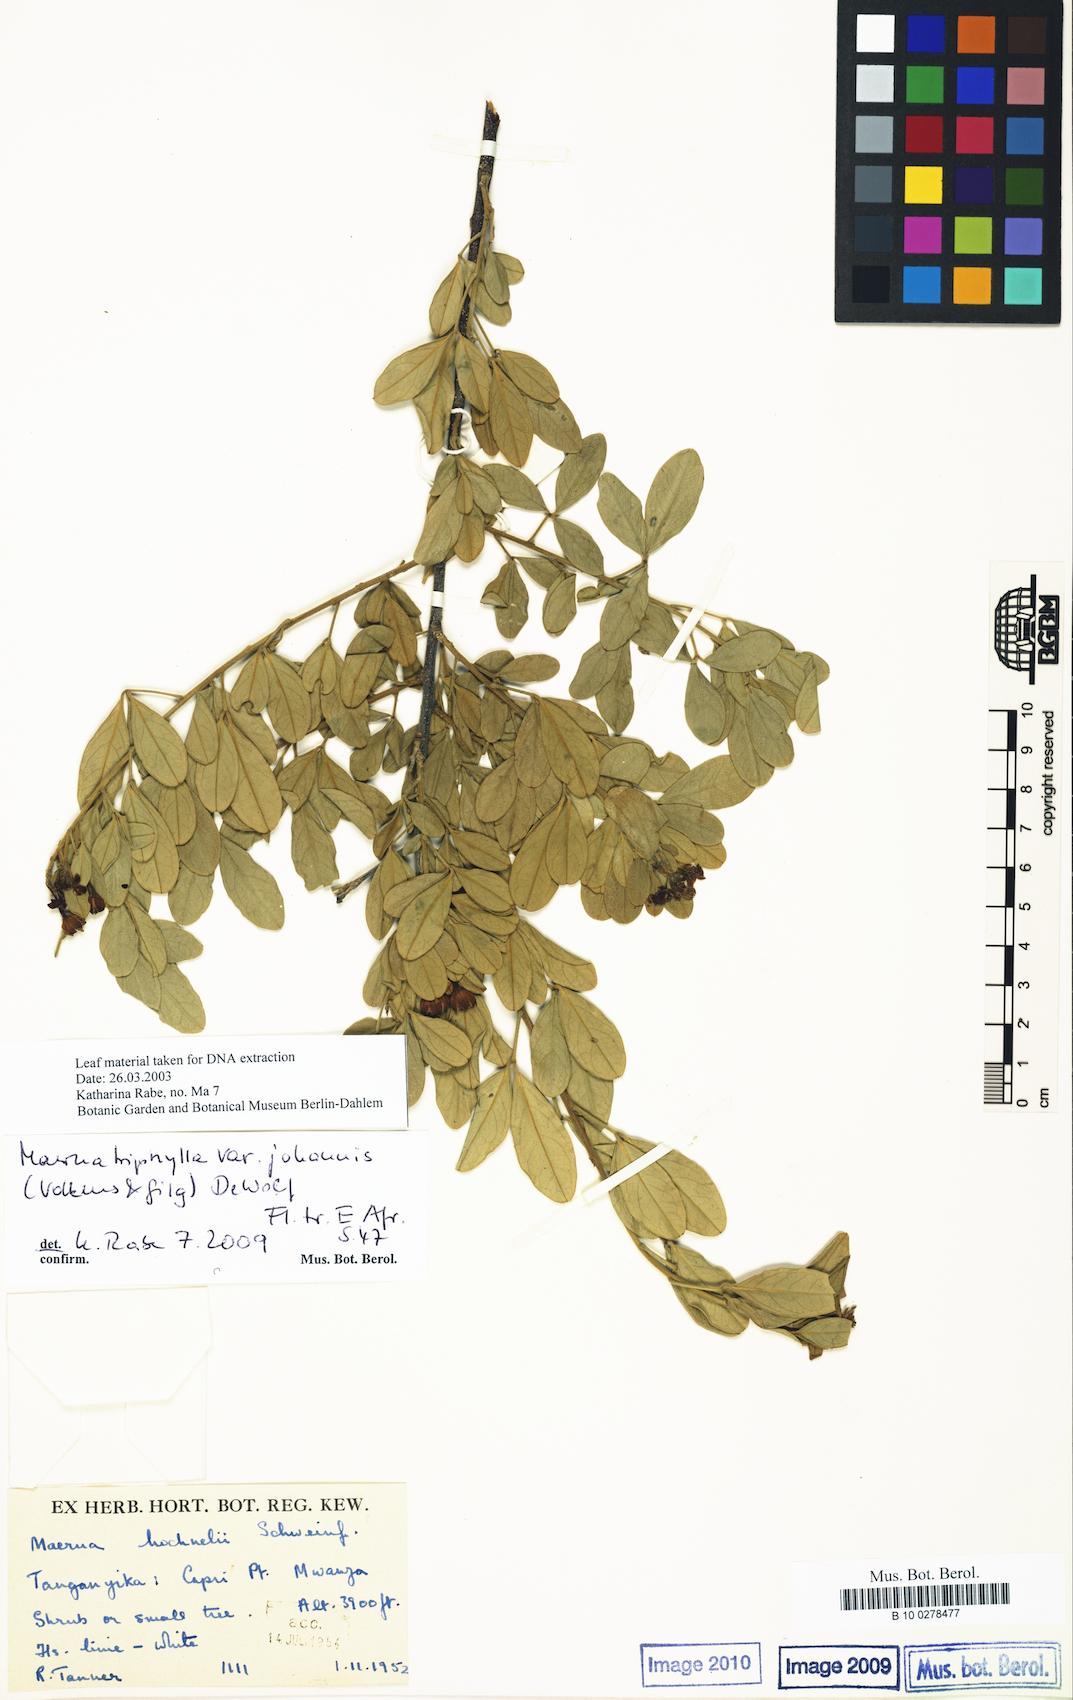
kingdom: Plantae
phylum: Tracheophyta
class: Magnoliopsida
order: Brassicales
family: Capparaceae
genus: Maerua
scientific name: Maerua triphylla
